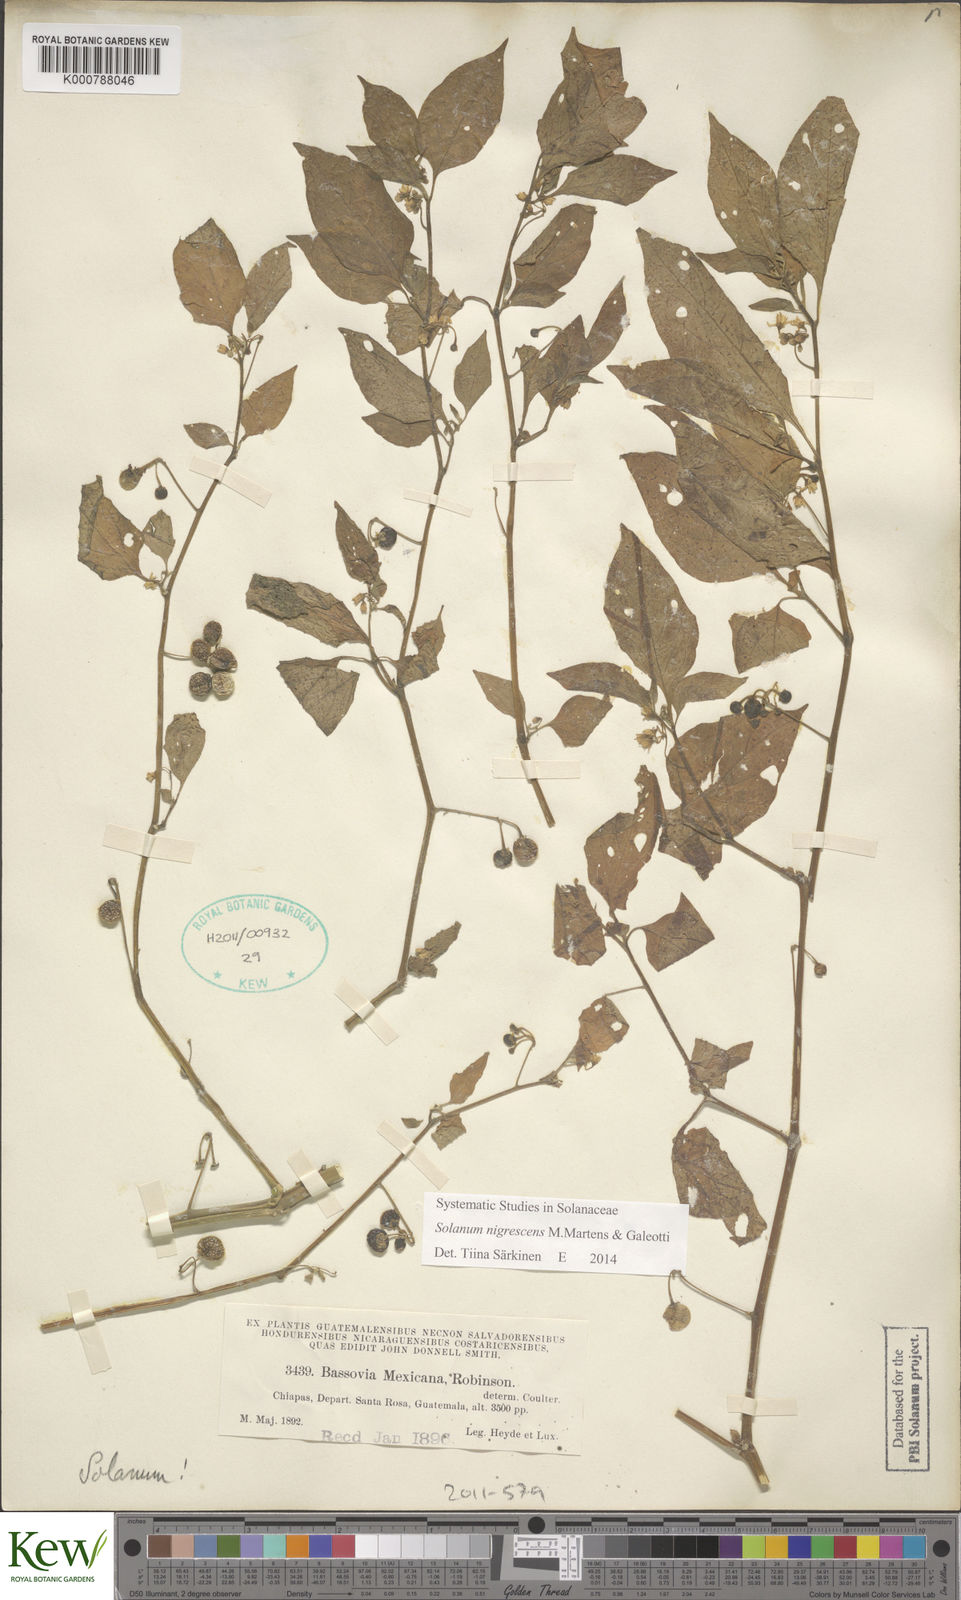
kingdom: Plantae
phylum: Tracheophyta
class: Magnoliopsida
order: Solanales
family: Solanaceae
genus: Solanum
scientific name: Solanum nigrescens
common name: Divine nightshade
